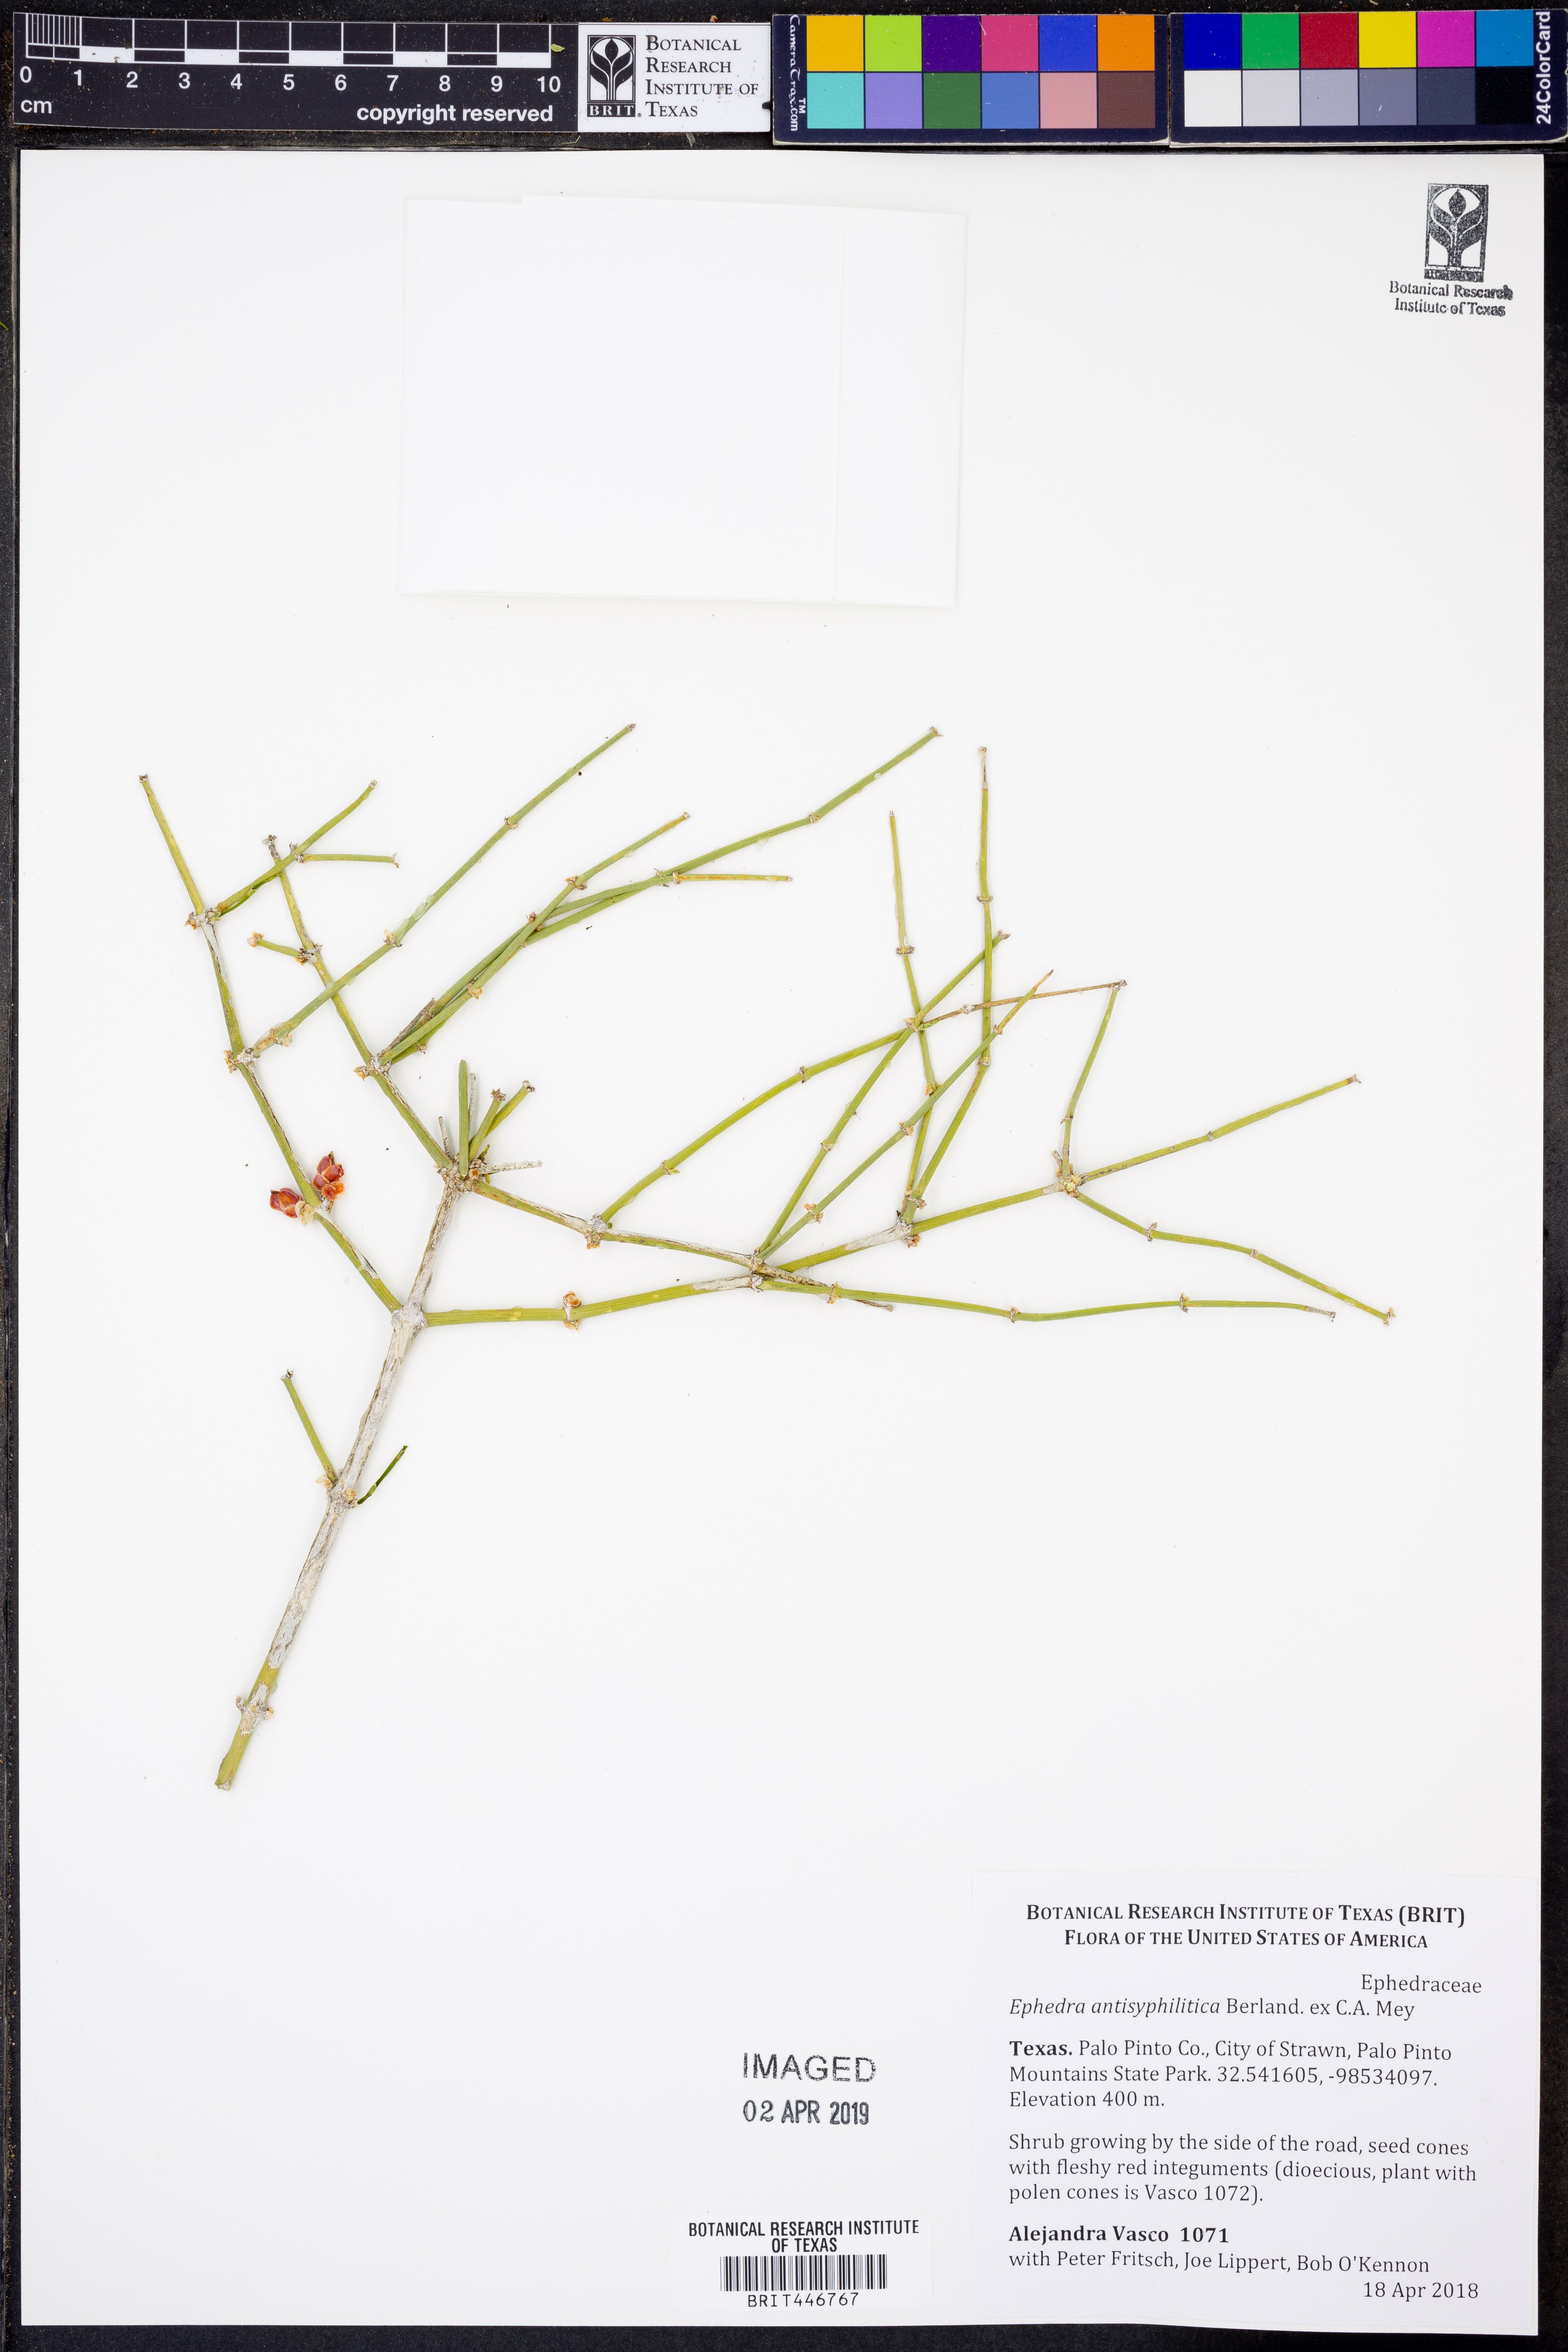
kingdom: Plantae
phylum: Tracheophyta
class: Gnetopsida
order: Ephedrales
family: Ephedraceae
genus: Ephedra
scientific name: Ephedra antisyphilitica
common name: Clipweed
